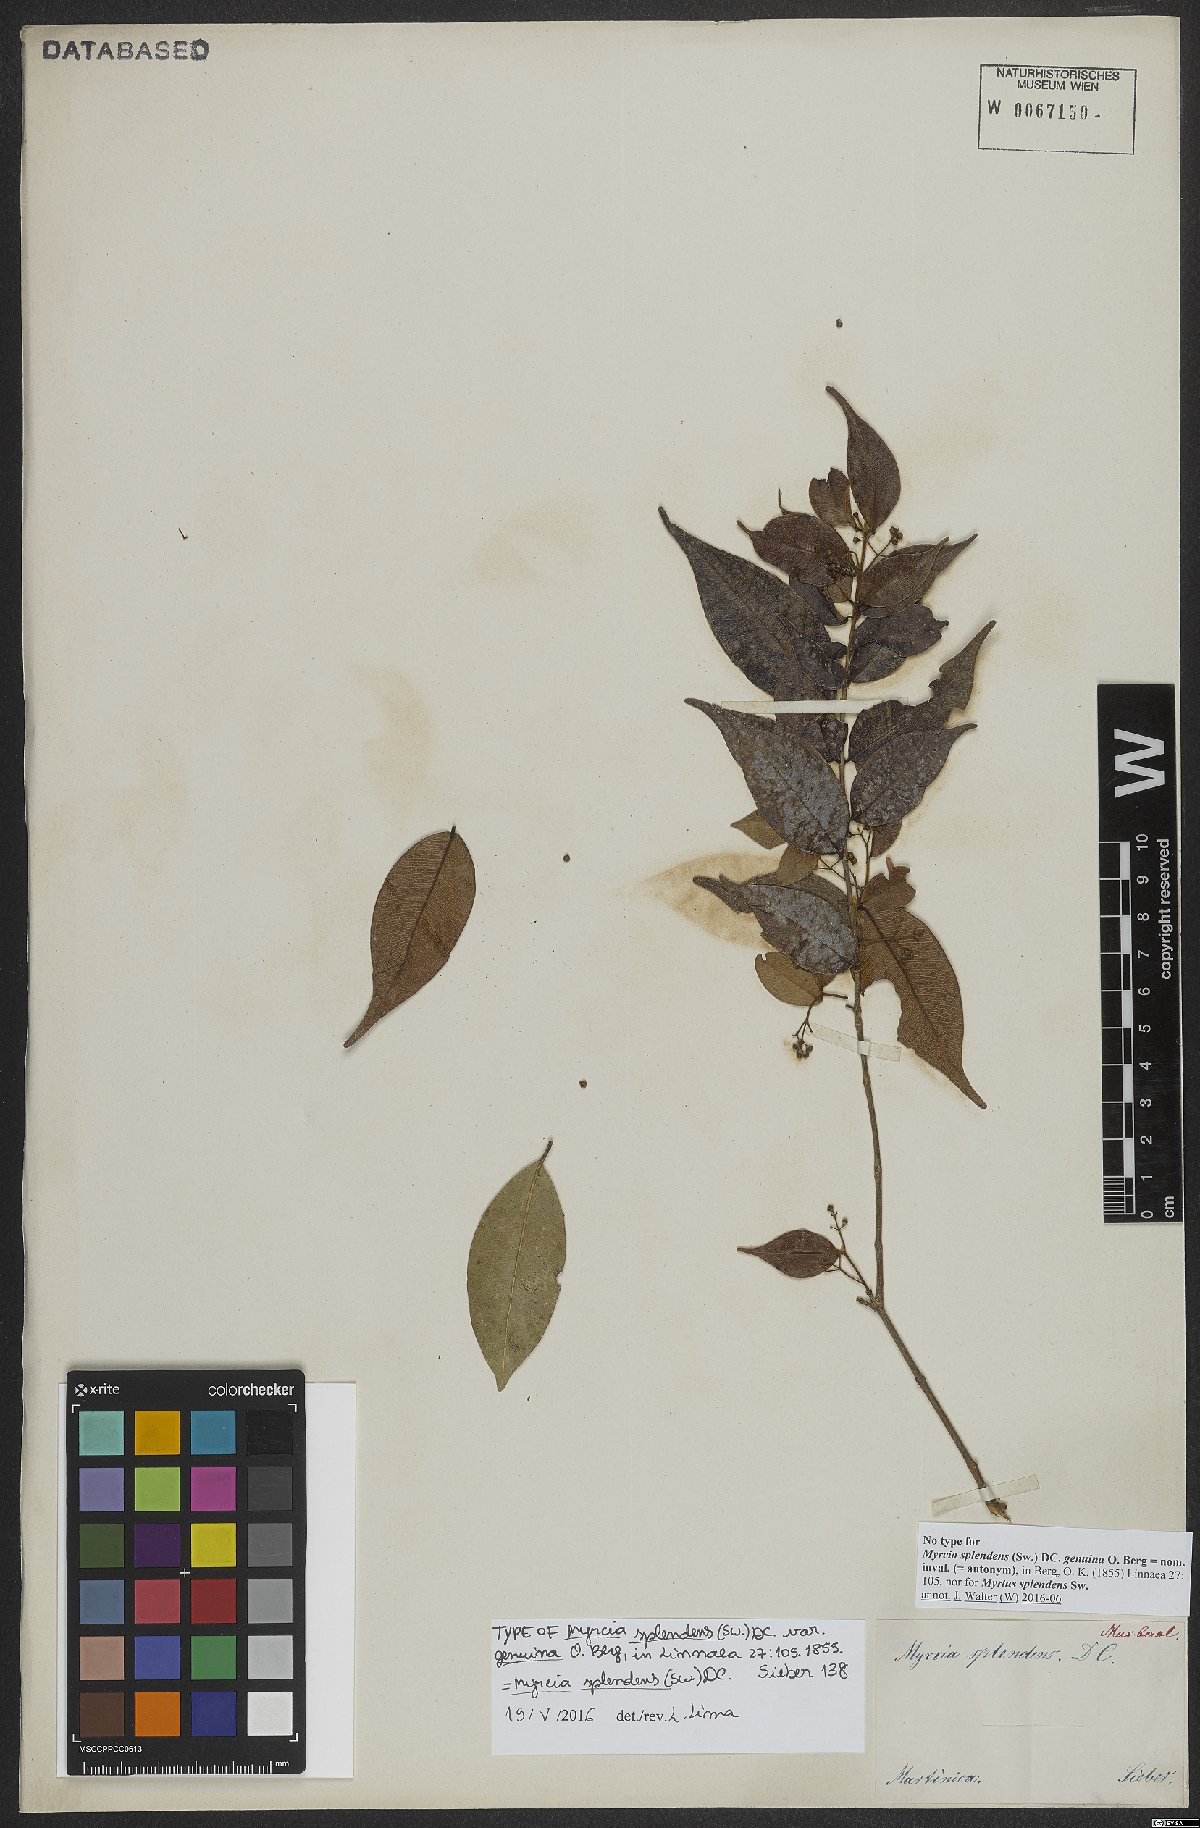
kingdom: Plantae
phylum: Tracheophyta
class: Magnoliopsida
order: Myrtales
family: Myrtaceae
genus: Myrcia
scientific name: Myrcia splendens
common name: Surinam cherry
